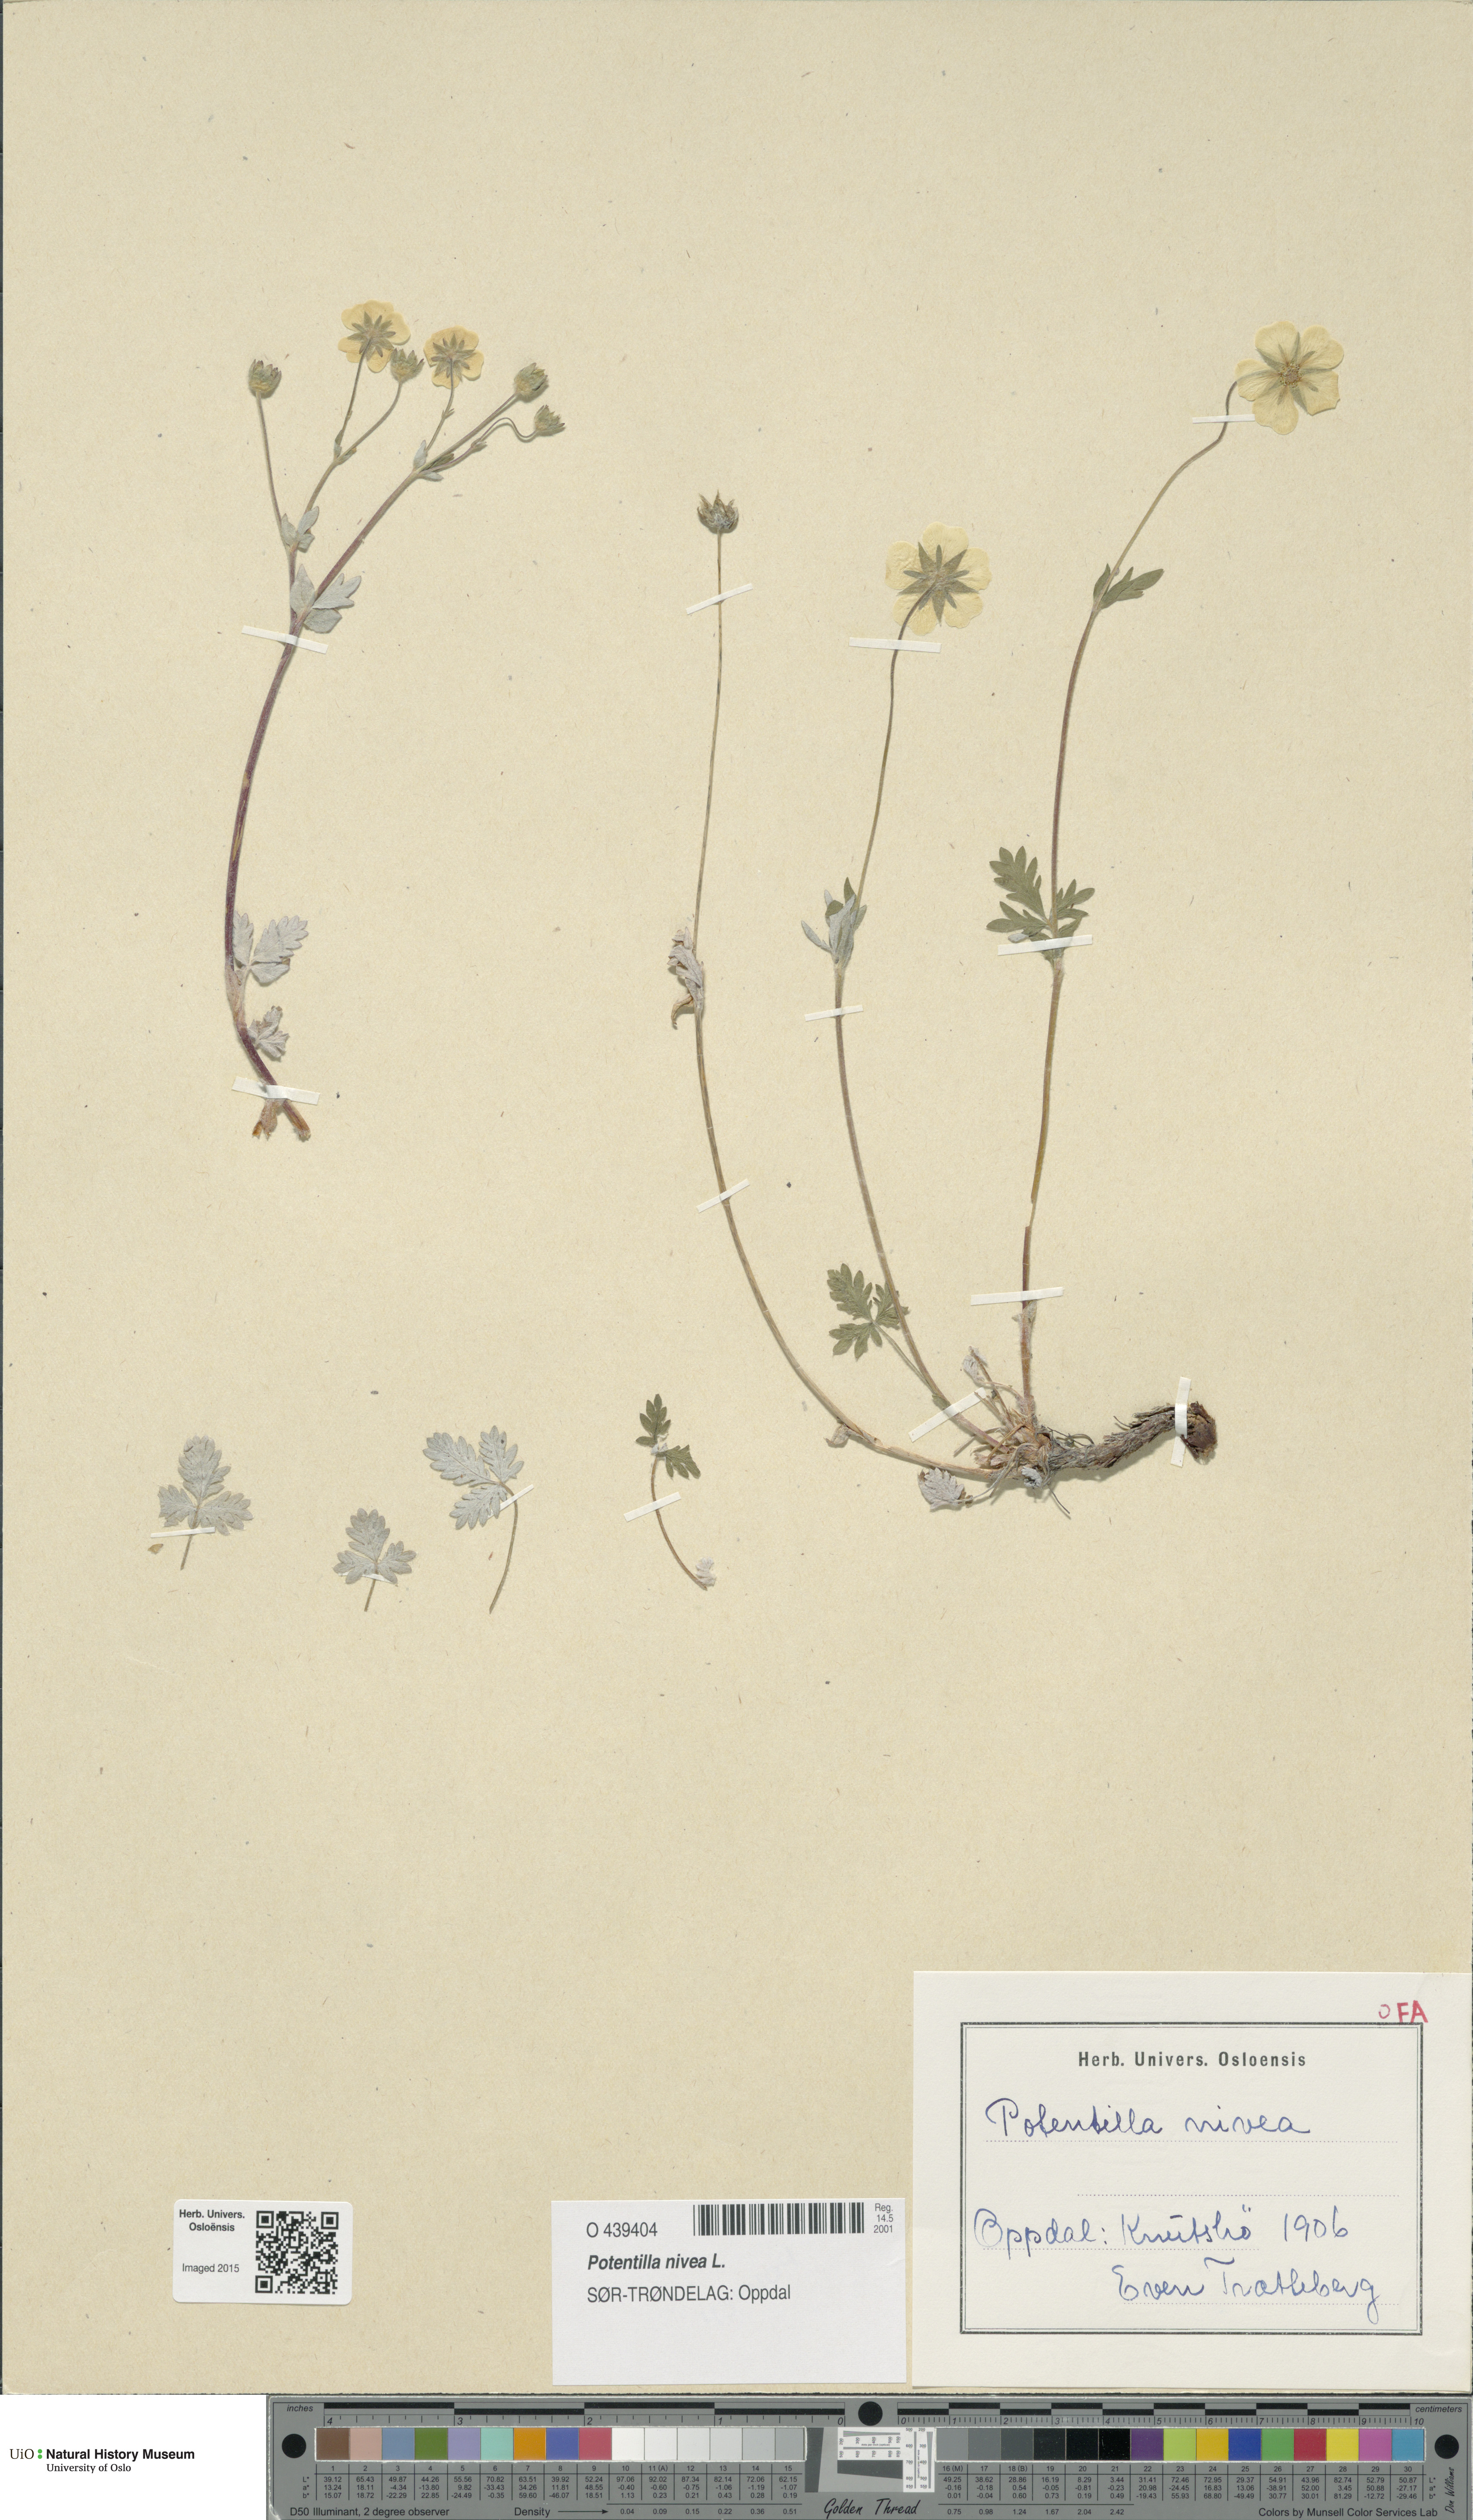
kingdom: Plantae
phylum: Tracheophyta
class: Magnoliopsida
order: Rosales
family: Rosaceae
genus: Potentilla
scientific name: Potentilla arenosa
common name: Bluff cinquefoil
